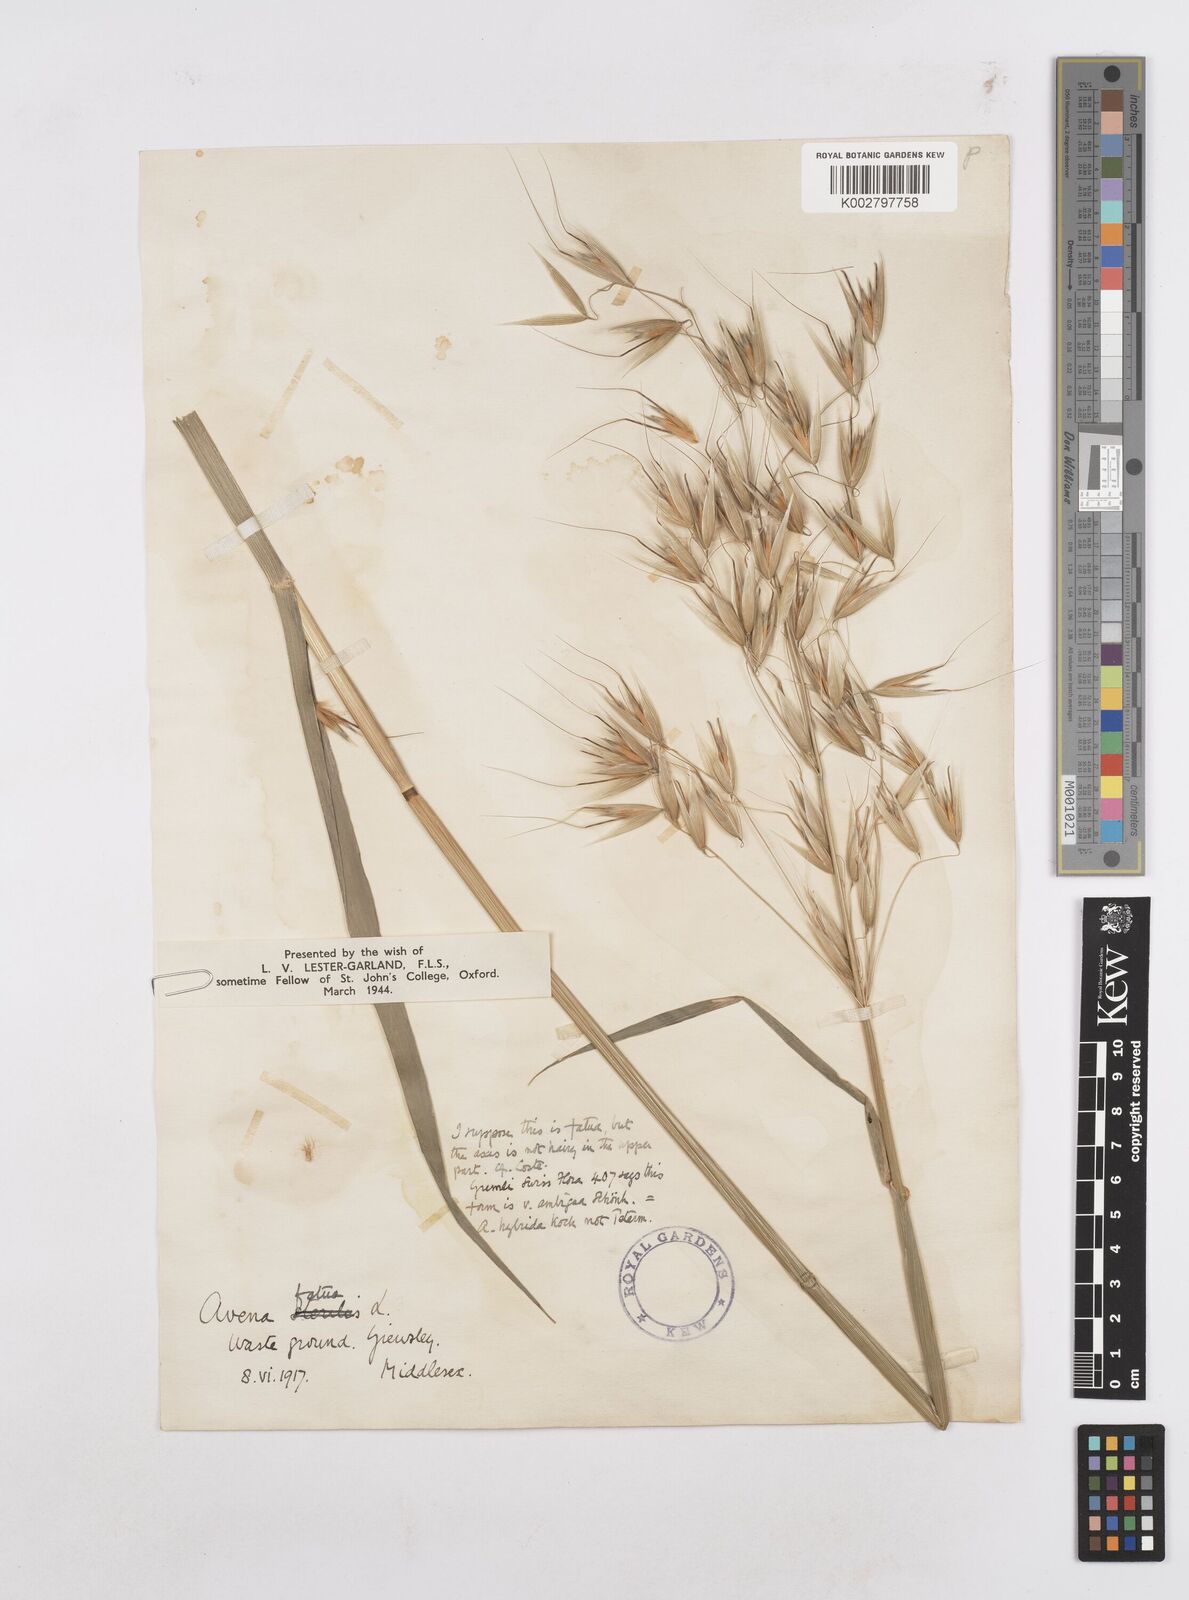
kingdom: Plantae
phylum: Tracheophyta
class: Liliopsida
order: Poales
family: Poaceae
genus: Avena
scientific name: Avena sterilis
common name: Animated oat
